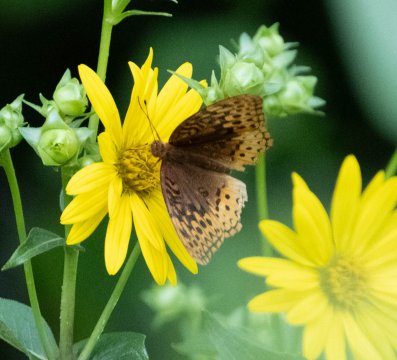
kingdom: Animalia
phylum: Arthropoda
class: Insecta
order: Lepidoptera
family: Nymphalidae
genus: Speyeria
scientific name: Speyeria cybele
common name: Great Spangled Fritillary
